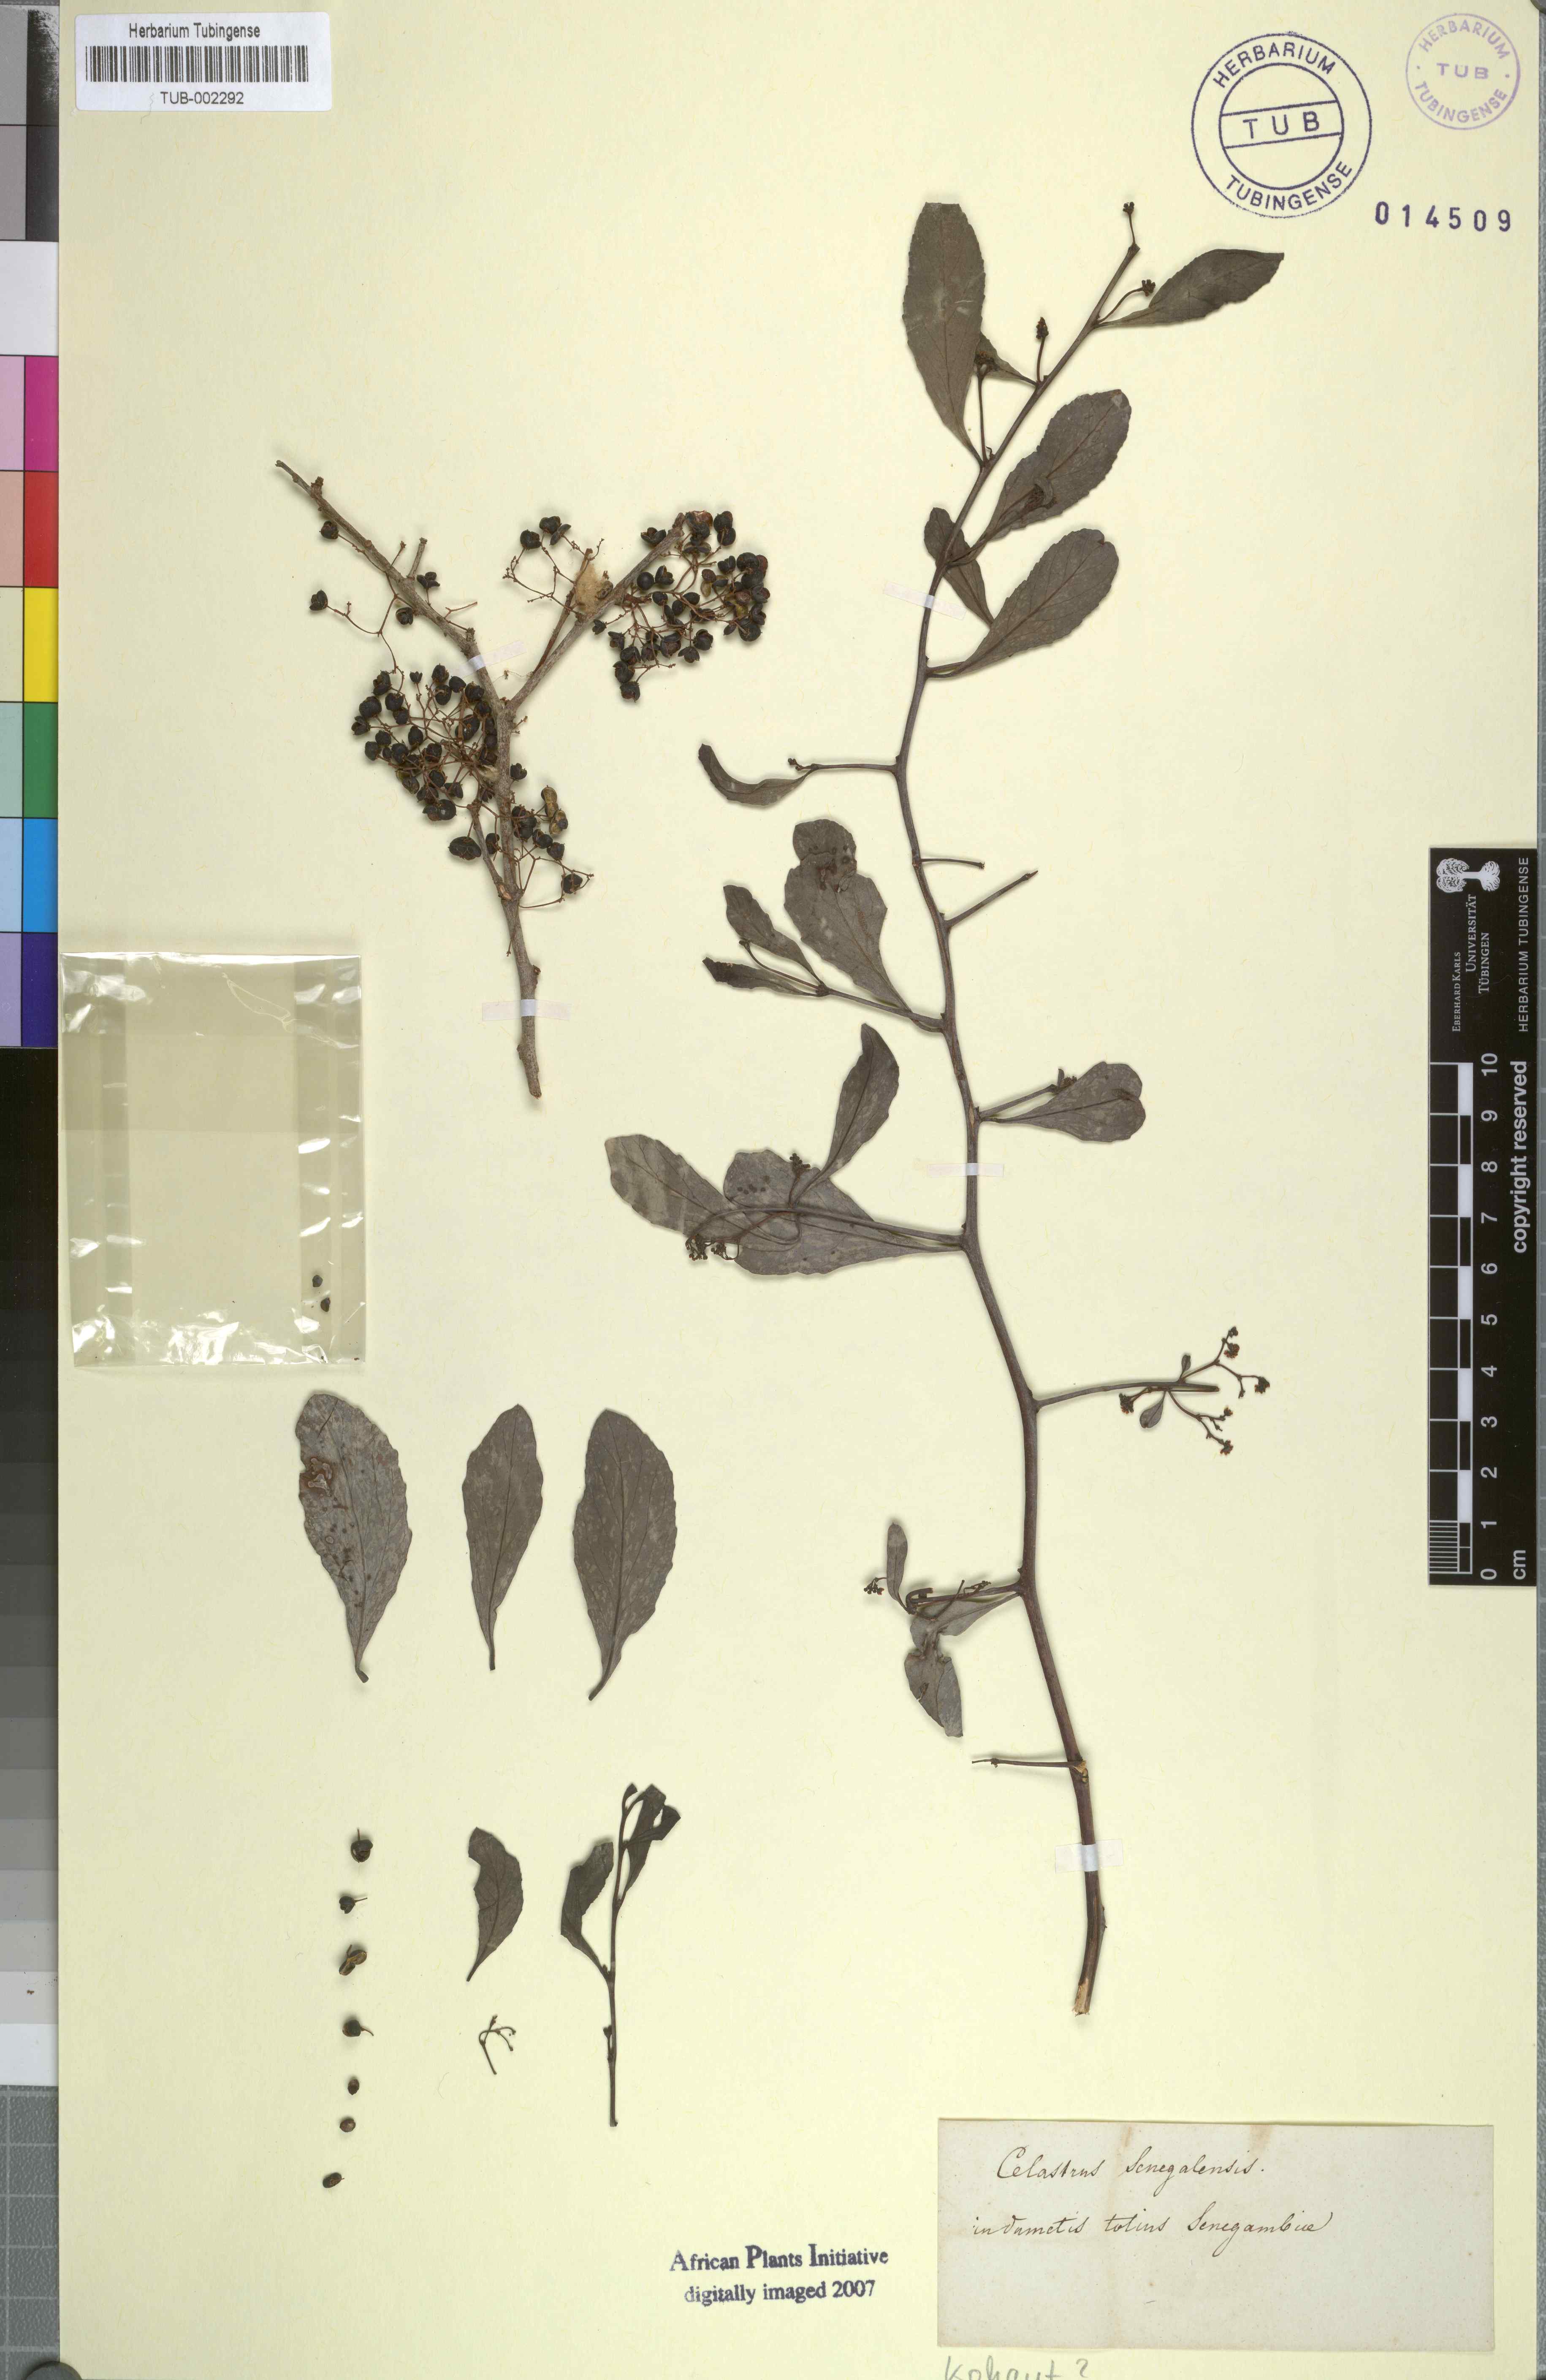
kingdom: Plantae
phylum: Tracheophyta
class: Magnoliopsida
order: Celastrales
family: Celastraceae
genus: Gymnosporia
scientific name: Gymnosporia senegalensis
